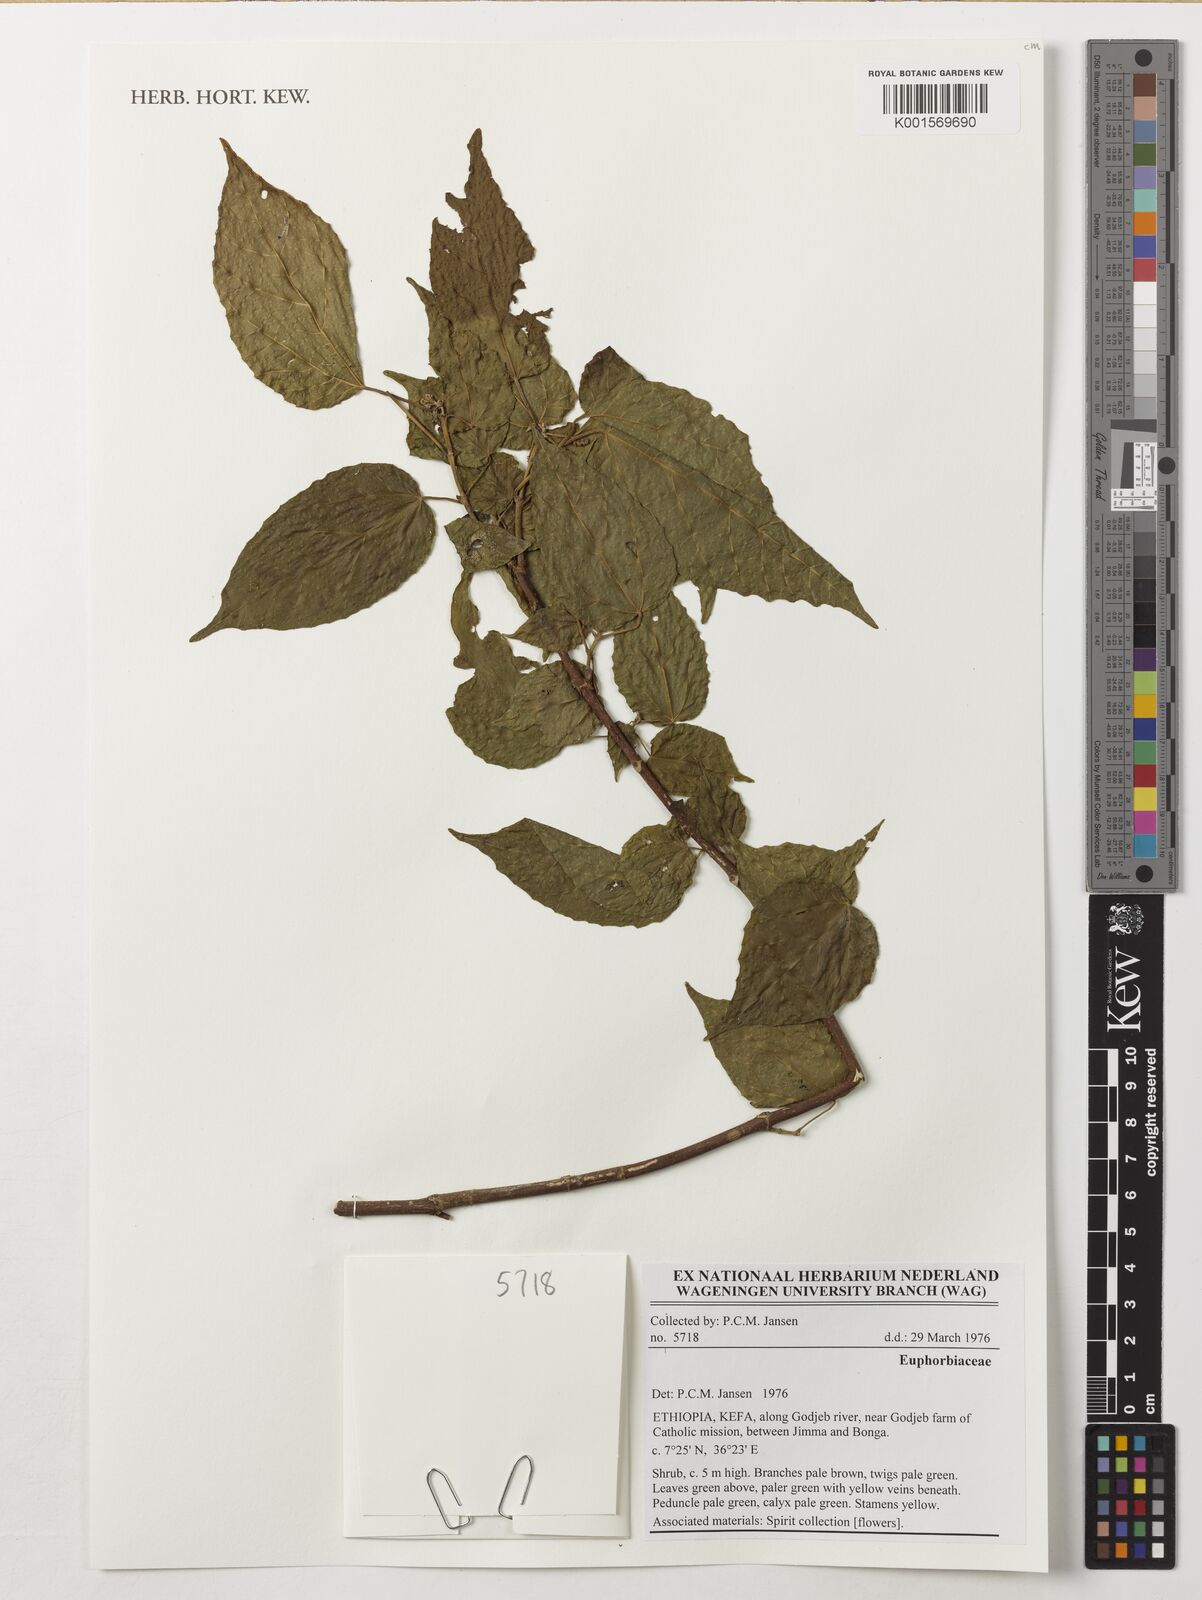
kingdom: Plantae
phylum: Tracheophyta
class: Magnoliopsida
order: Malpighiales
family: Euphorbiaceae
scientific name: Euphorbiaceae
